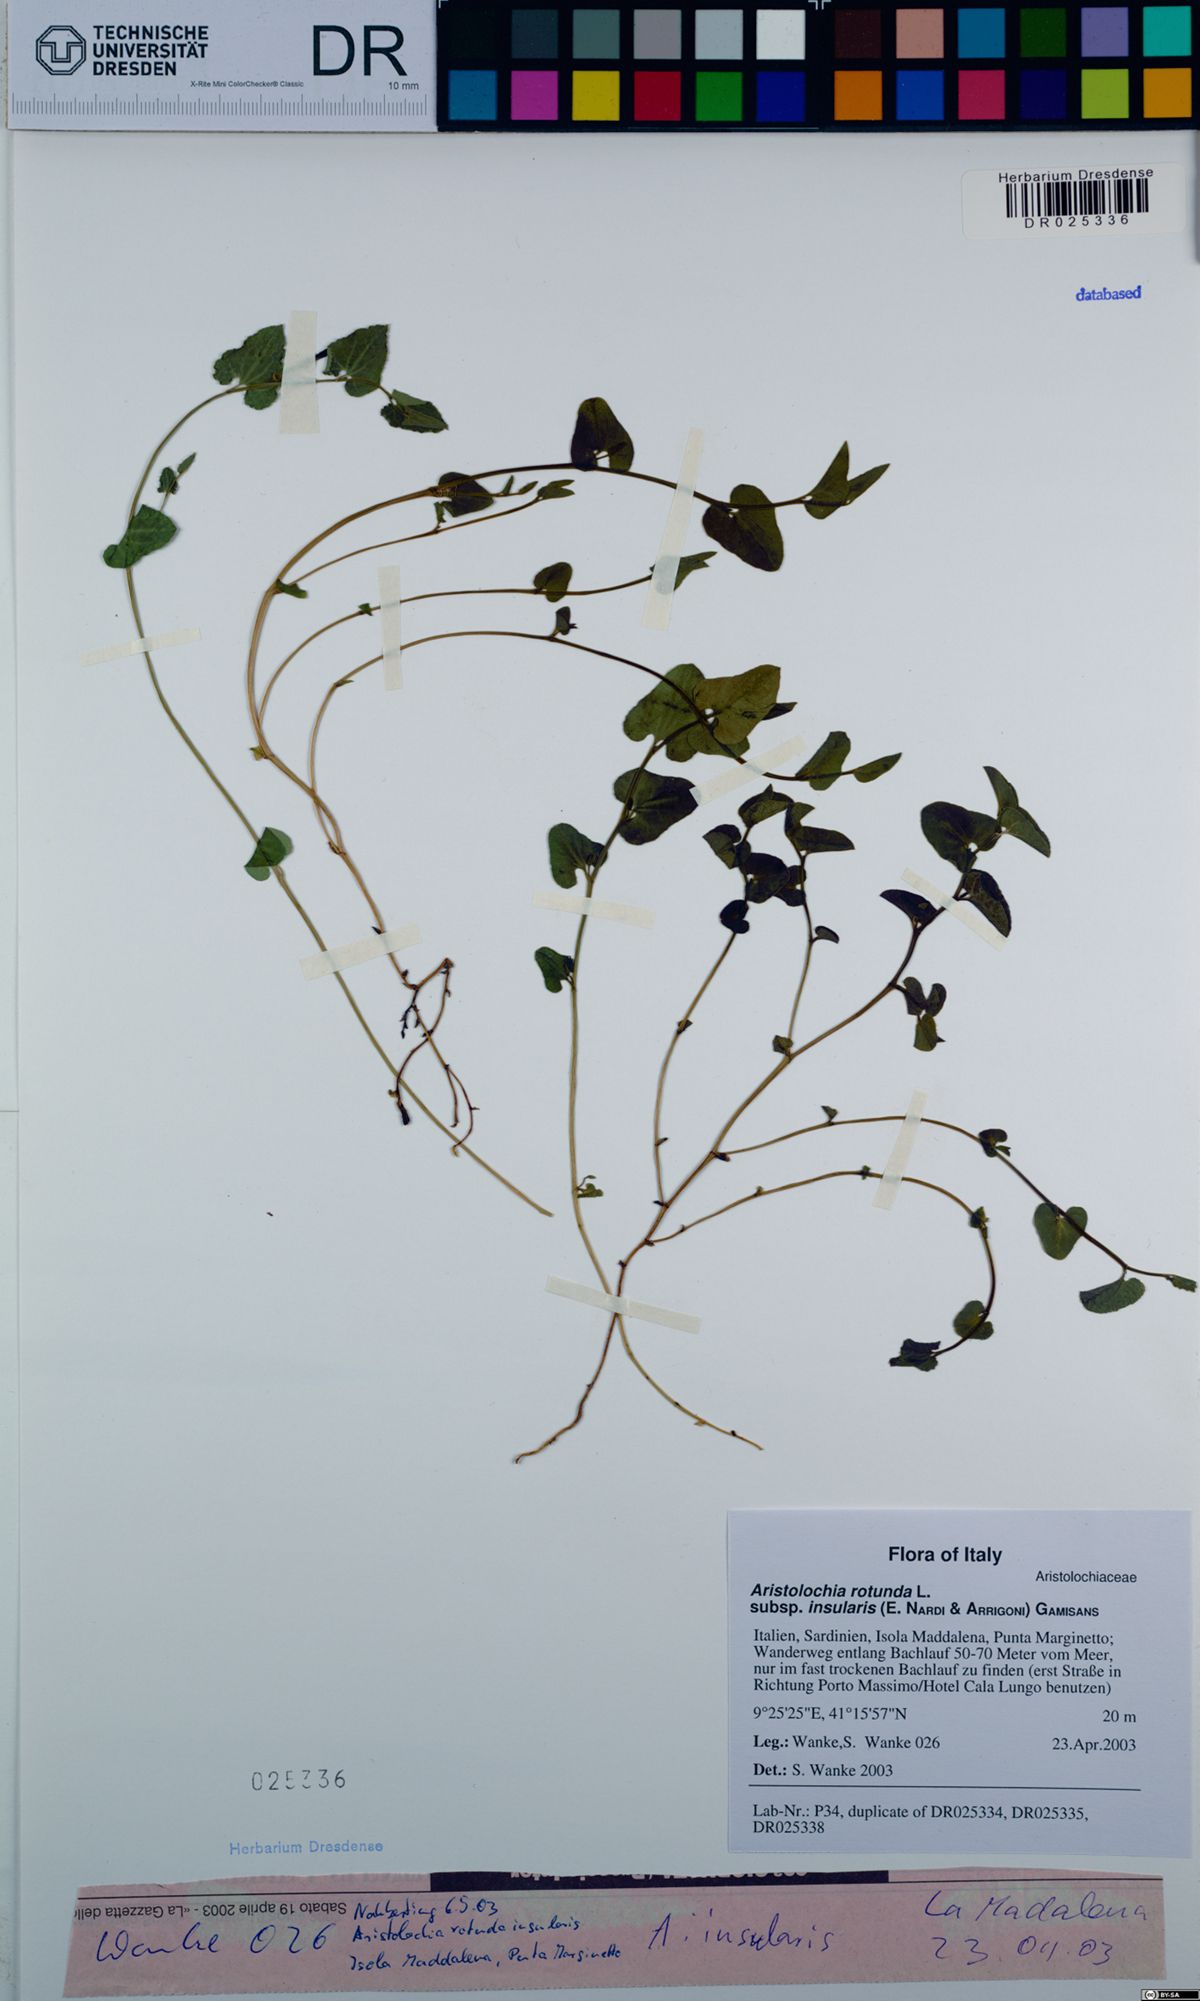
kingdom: Plantae
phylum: Tracheophyta
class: Magnoliopsida
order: Piperales
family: Aristolochiaceae
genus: Aristolochia
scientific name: Aristolochia rotunda
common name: Smearwort
